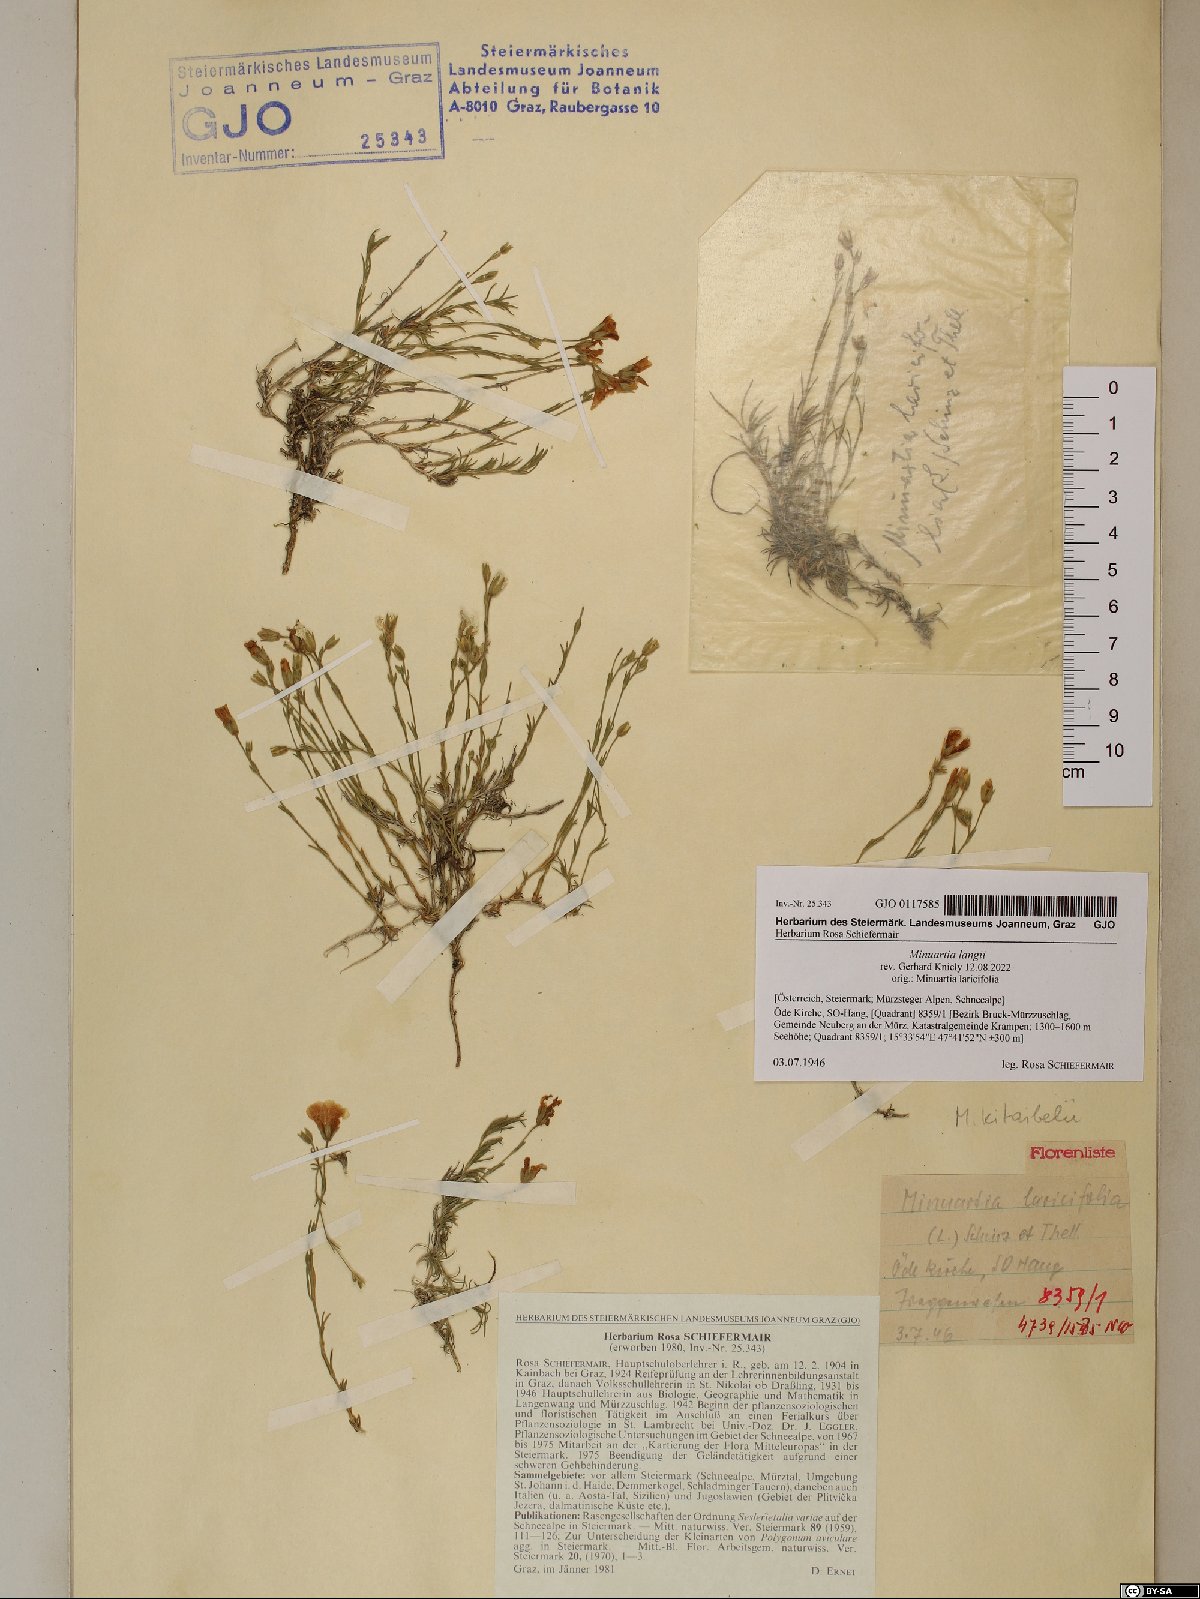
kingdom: Plantae
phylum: Tracheophyta
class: Magnoliopsida
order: Caryophyllales
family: Caryophyllaceae
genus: Cherleria
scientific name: Cherleria langii
